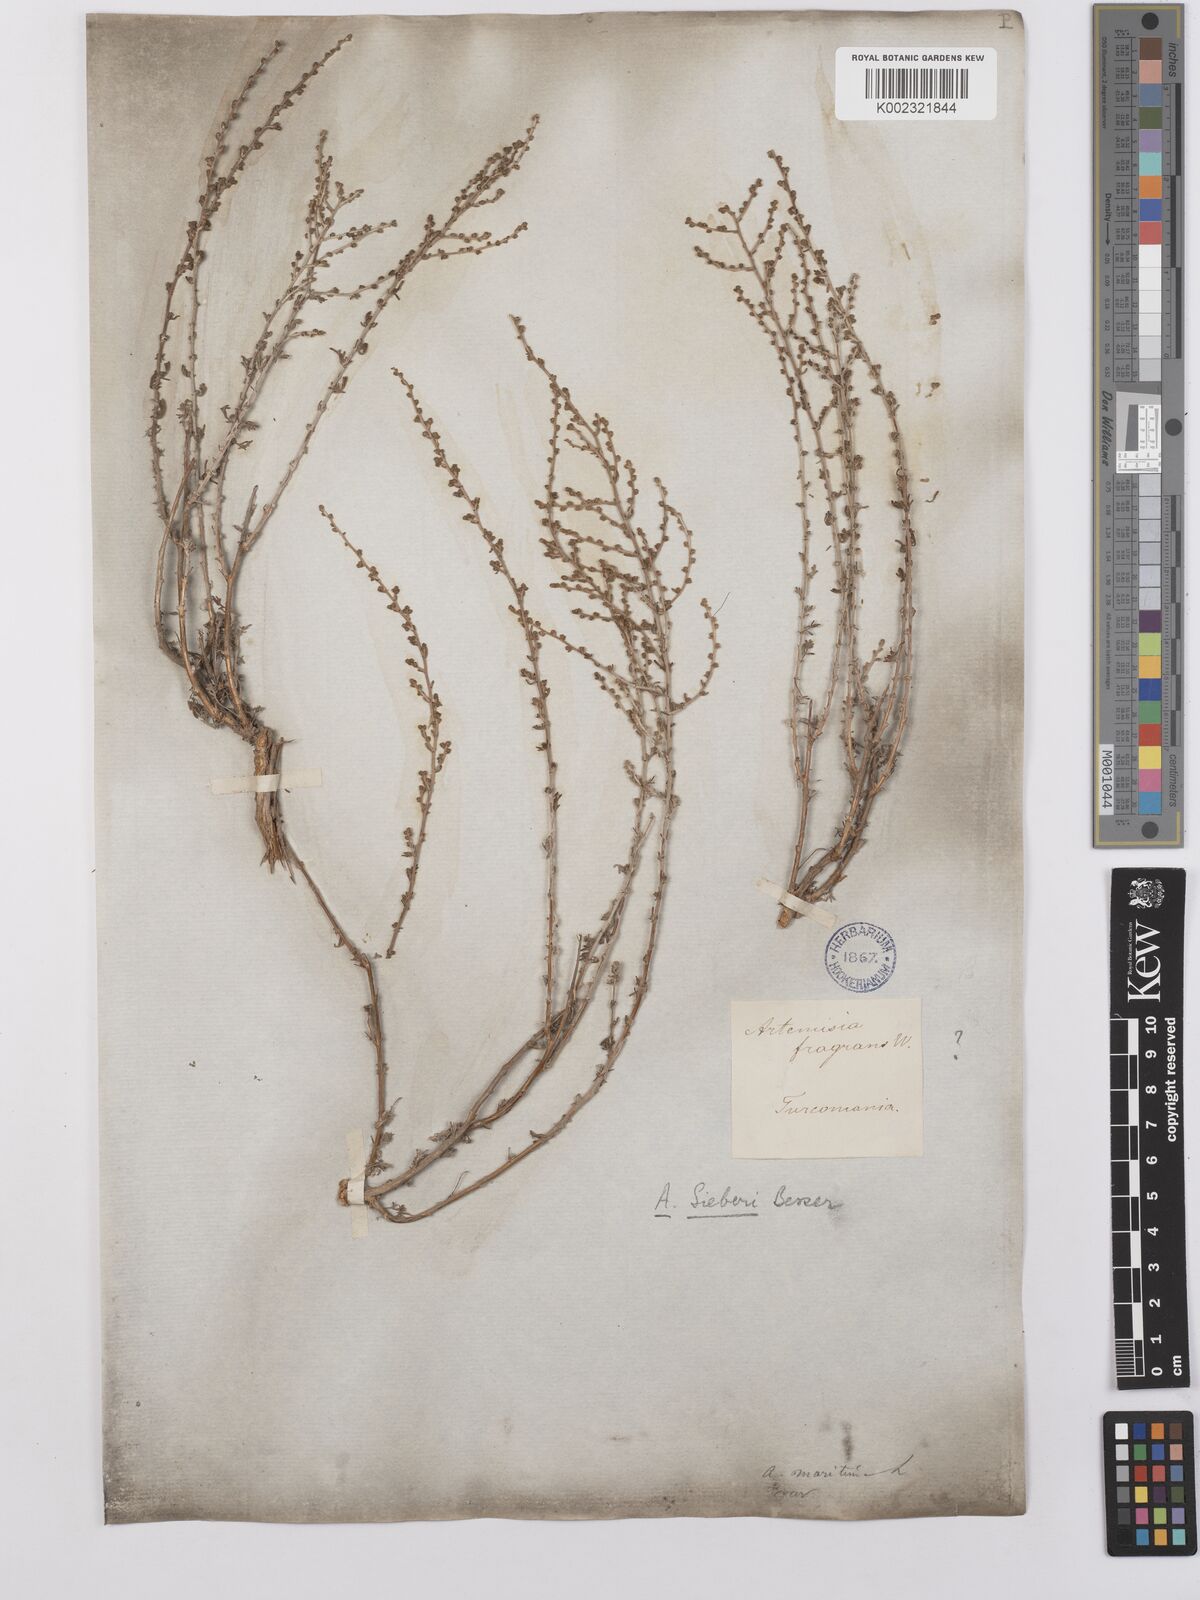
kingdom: Plantae
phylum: Tracheophyta
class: Magnoliopsida
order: Asterales
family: Asteraceae
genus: Artemisia
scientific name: Artemisia sieberi
